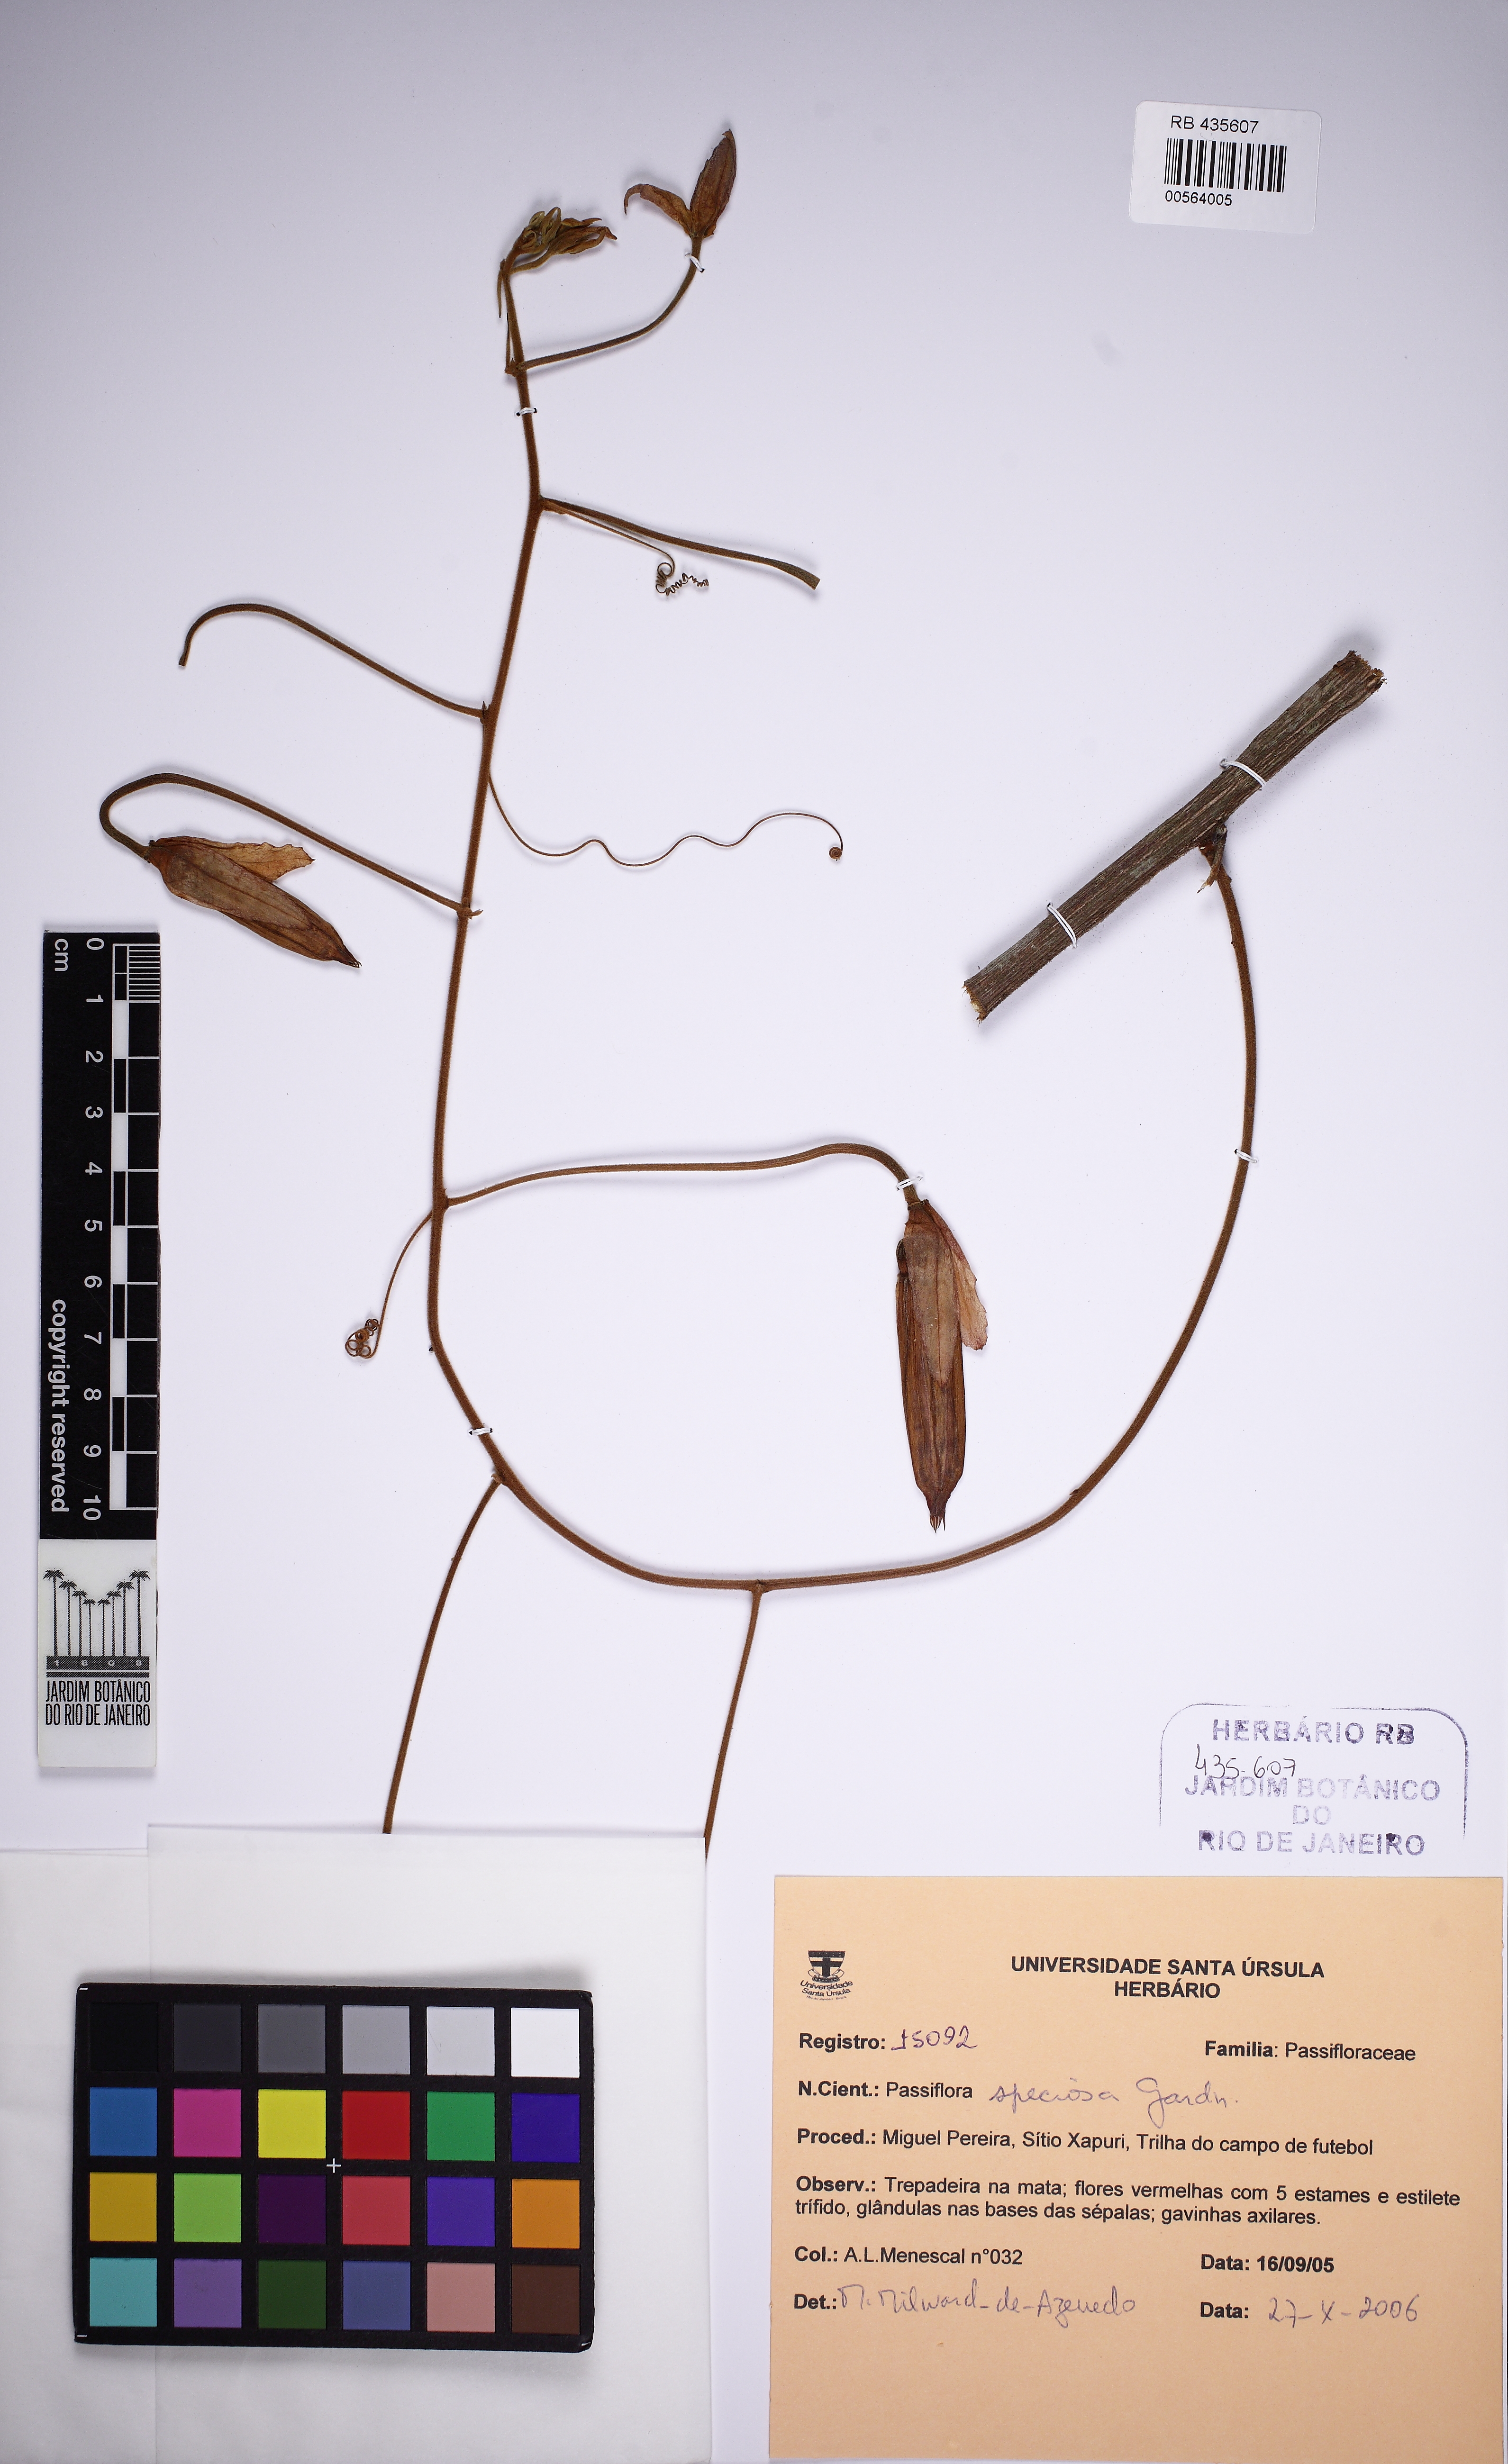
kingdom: Plantae
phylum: Tracheophyta
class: Magnoliopsida
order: Malpighiales
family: Passifloraceae
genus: Passiflora
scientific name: Passiflora speciosa
